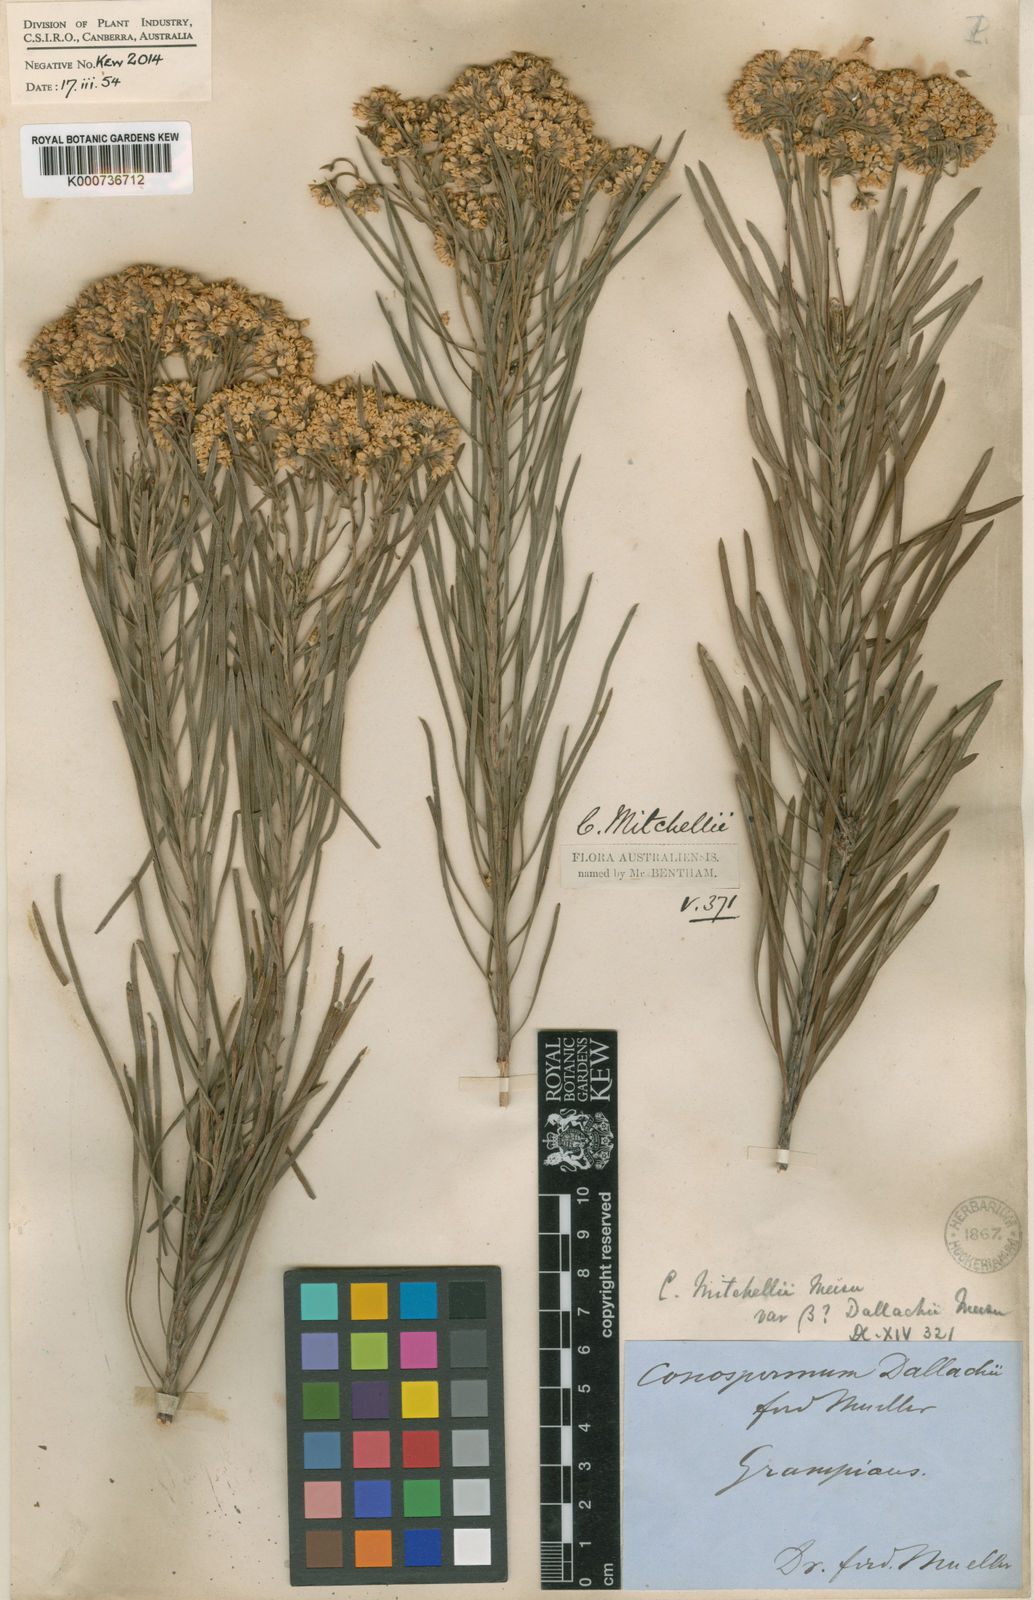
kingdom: Plantae
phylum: Tracheophyta
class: Magnoliopsida
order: Proteales
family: Proteaceae
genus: Conospermum
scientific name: Conospermum mitchellii
